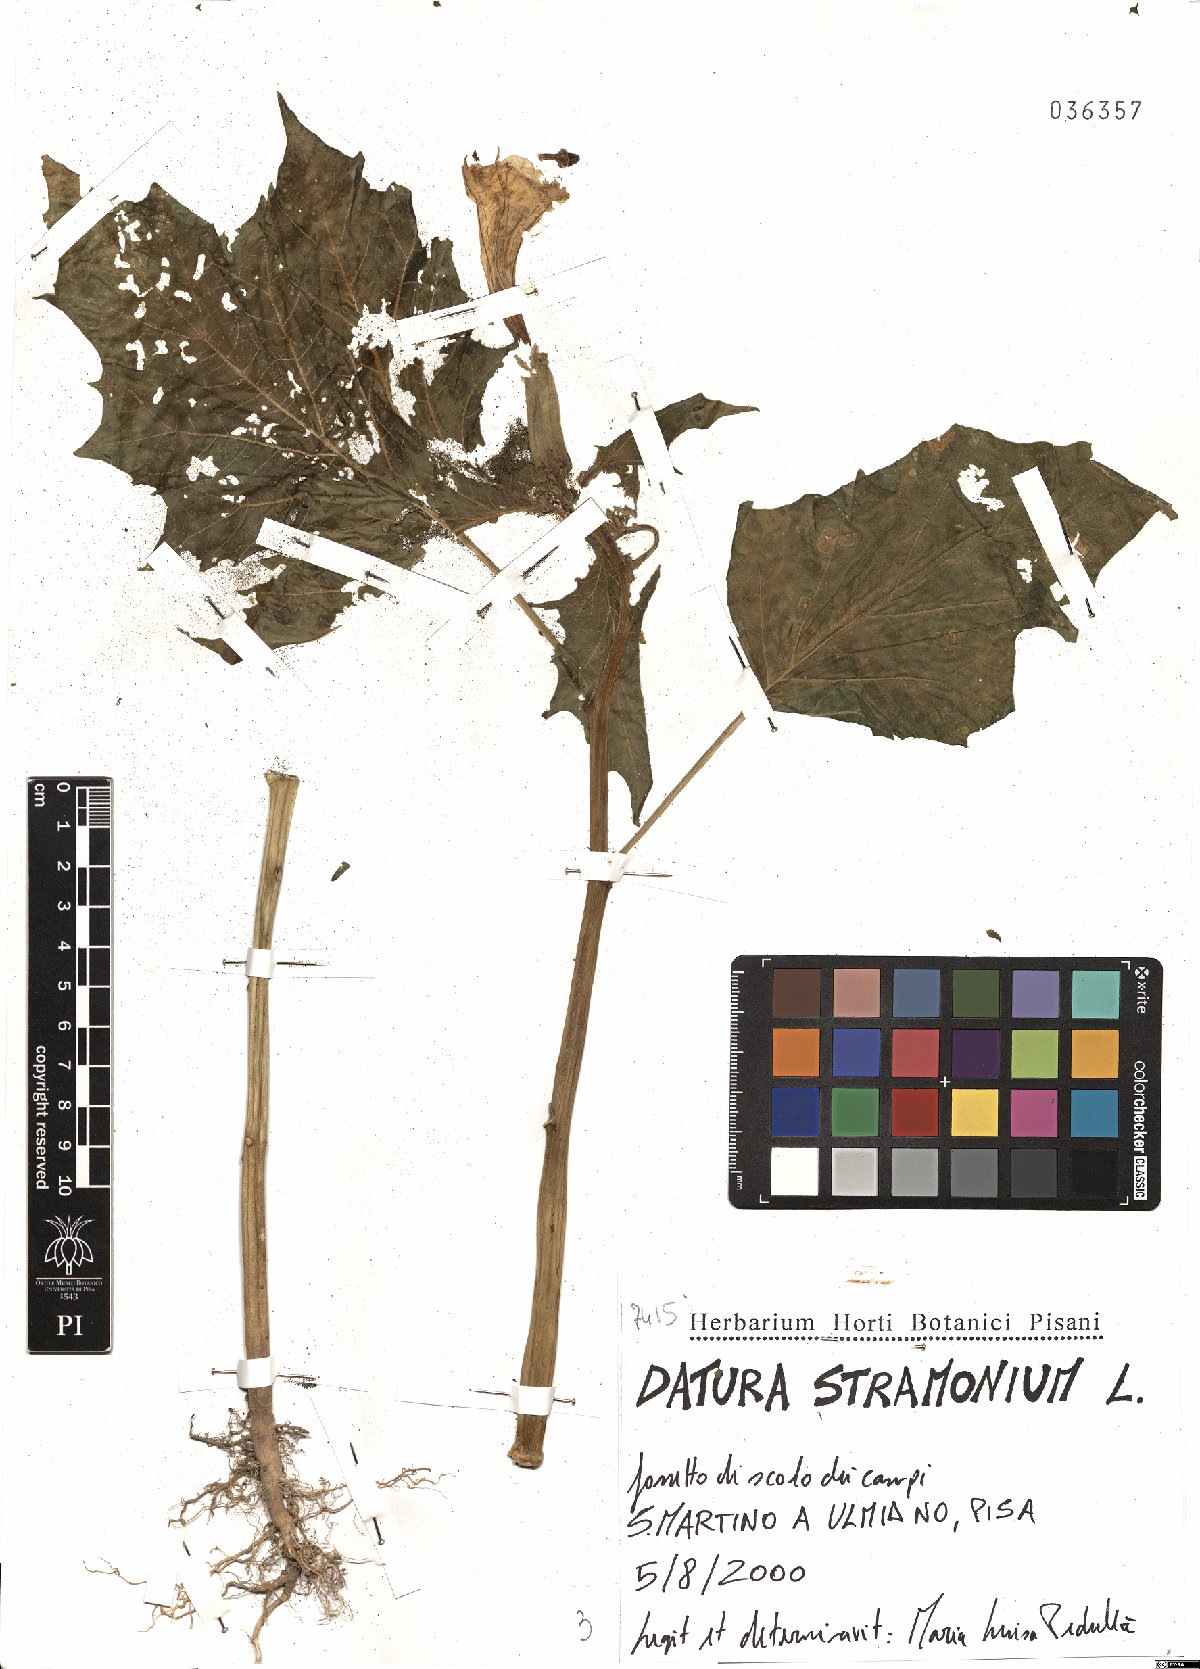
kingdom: Plantae
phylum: Tracheophyta
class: Magnoliopsida
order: Solanales
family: Solanaceae
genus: Datura
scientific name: Datura stramonium
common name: Thorn-apple
